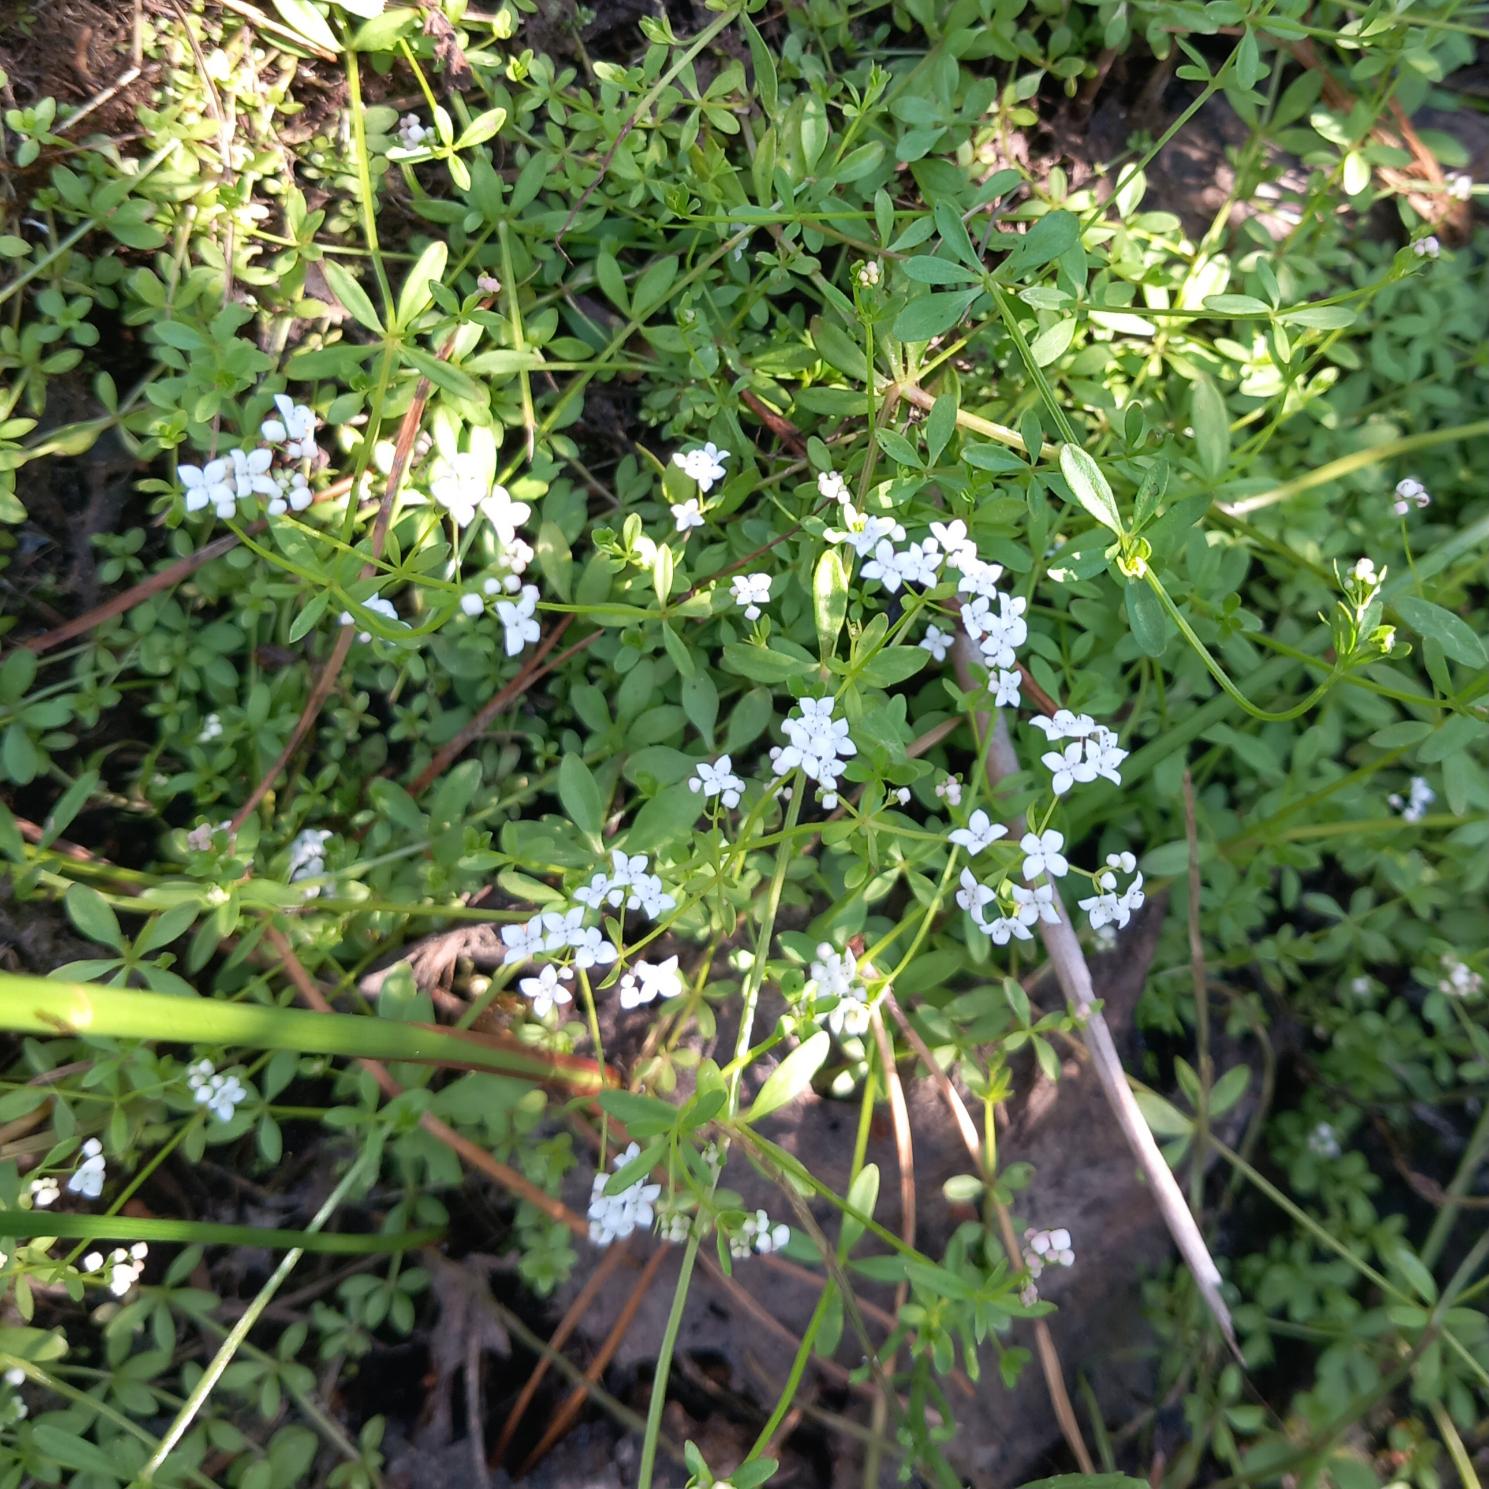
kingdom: Plantae
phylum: Tracheophyta
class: Magnoliopsida
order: Gentianales
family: Rubiaceae
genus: Galium
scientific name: Galium palustre
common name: Kær-snerre
